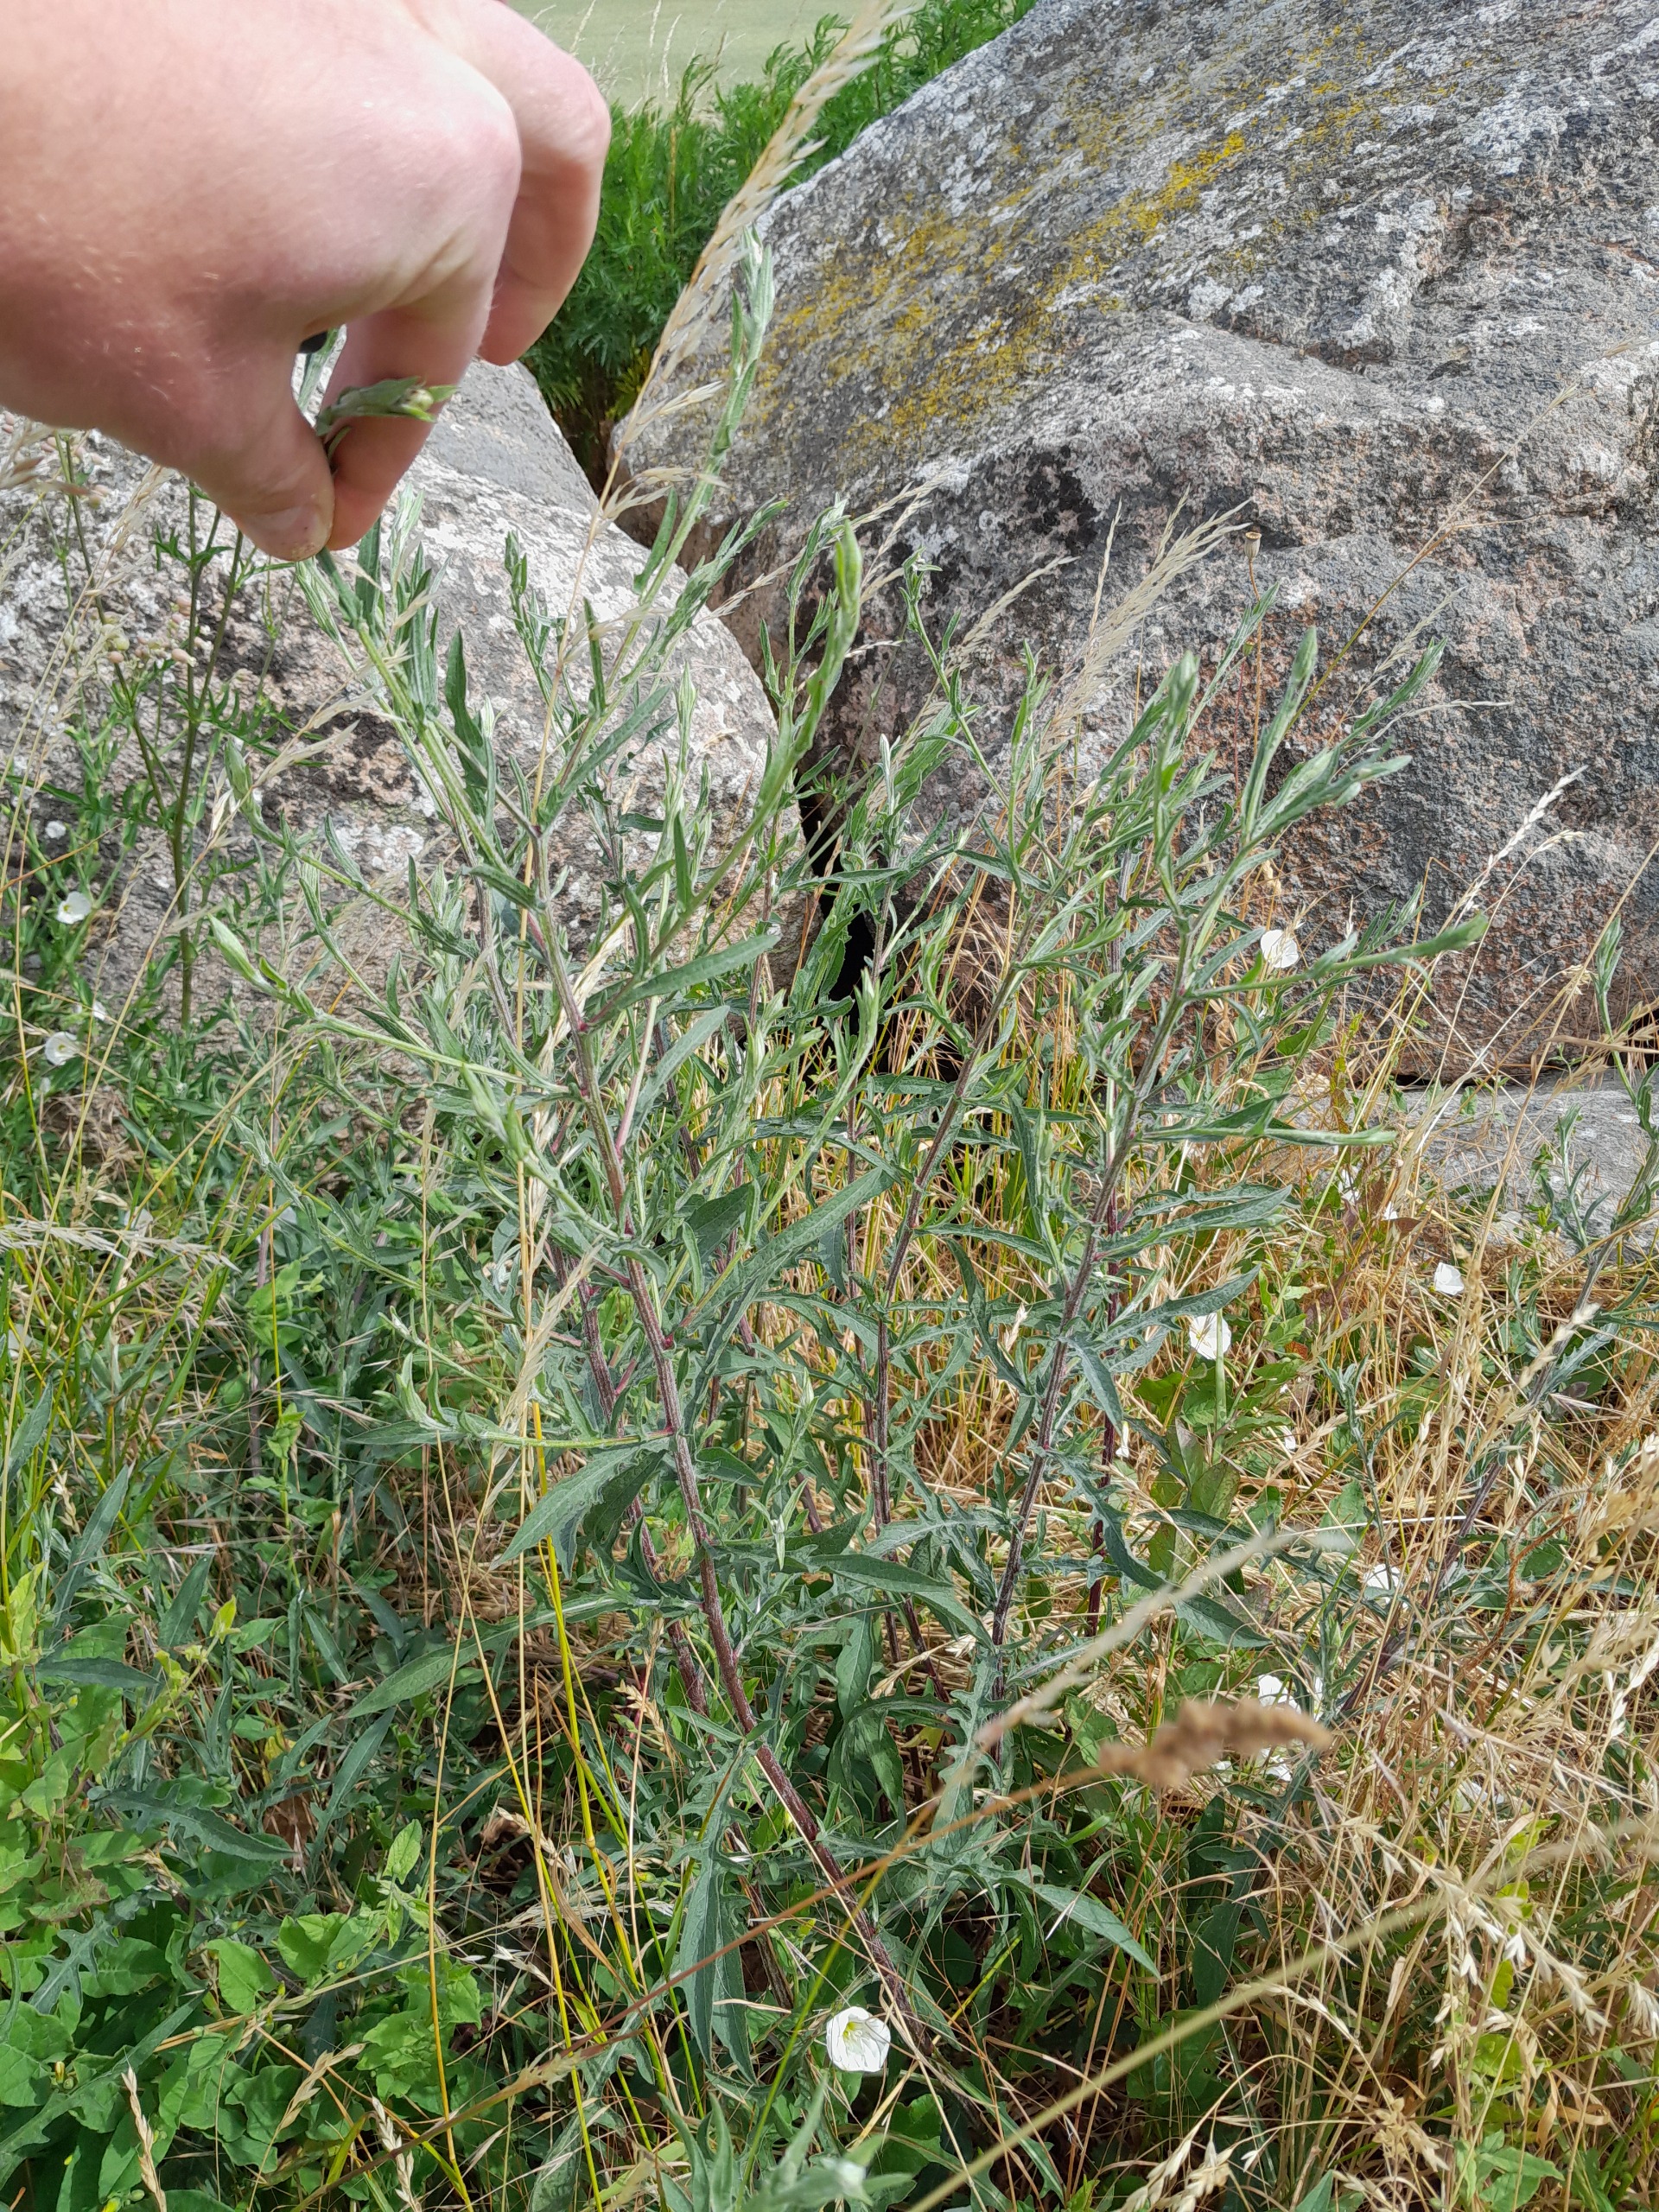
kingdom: Plantae
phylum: Tracheophyta
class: Magnoliopsida
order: Asterales
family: Asteraceae
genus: Centaurea
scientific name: Centaurea jacea
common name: Almindelig knopurt
